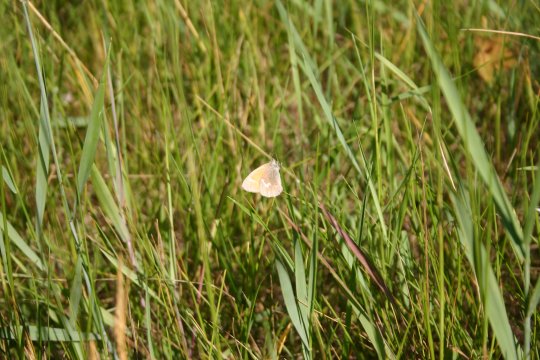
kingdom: Animalia
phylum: Arthropoda
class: Insecta
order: Lepidoptera
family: Nymphalidae
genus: Coenonympha
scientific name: Coenonympha tullia
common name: Large Heath
